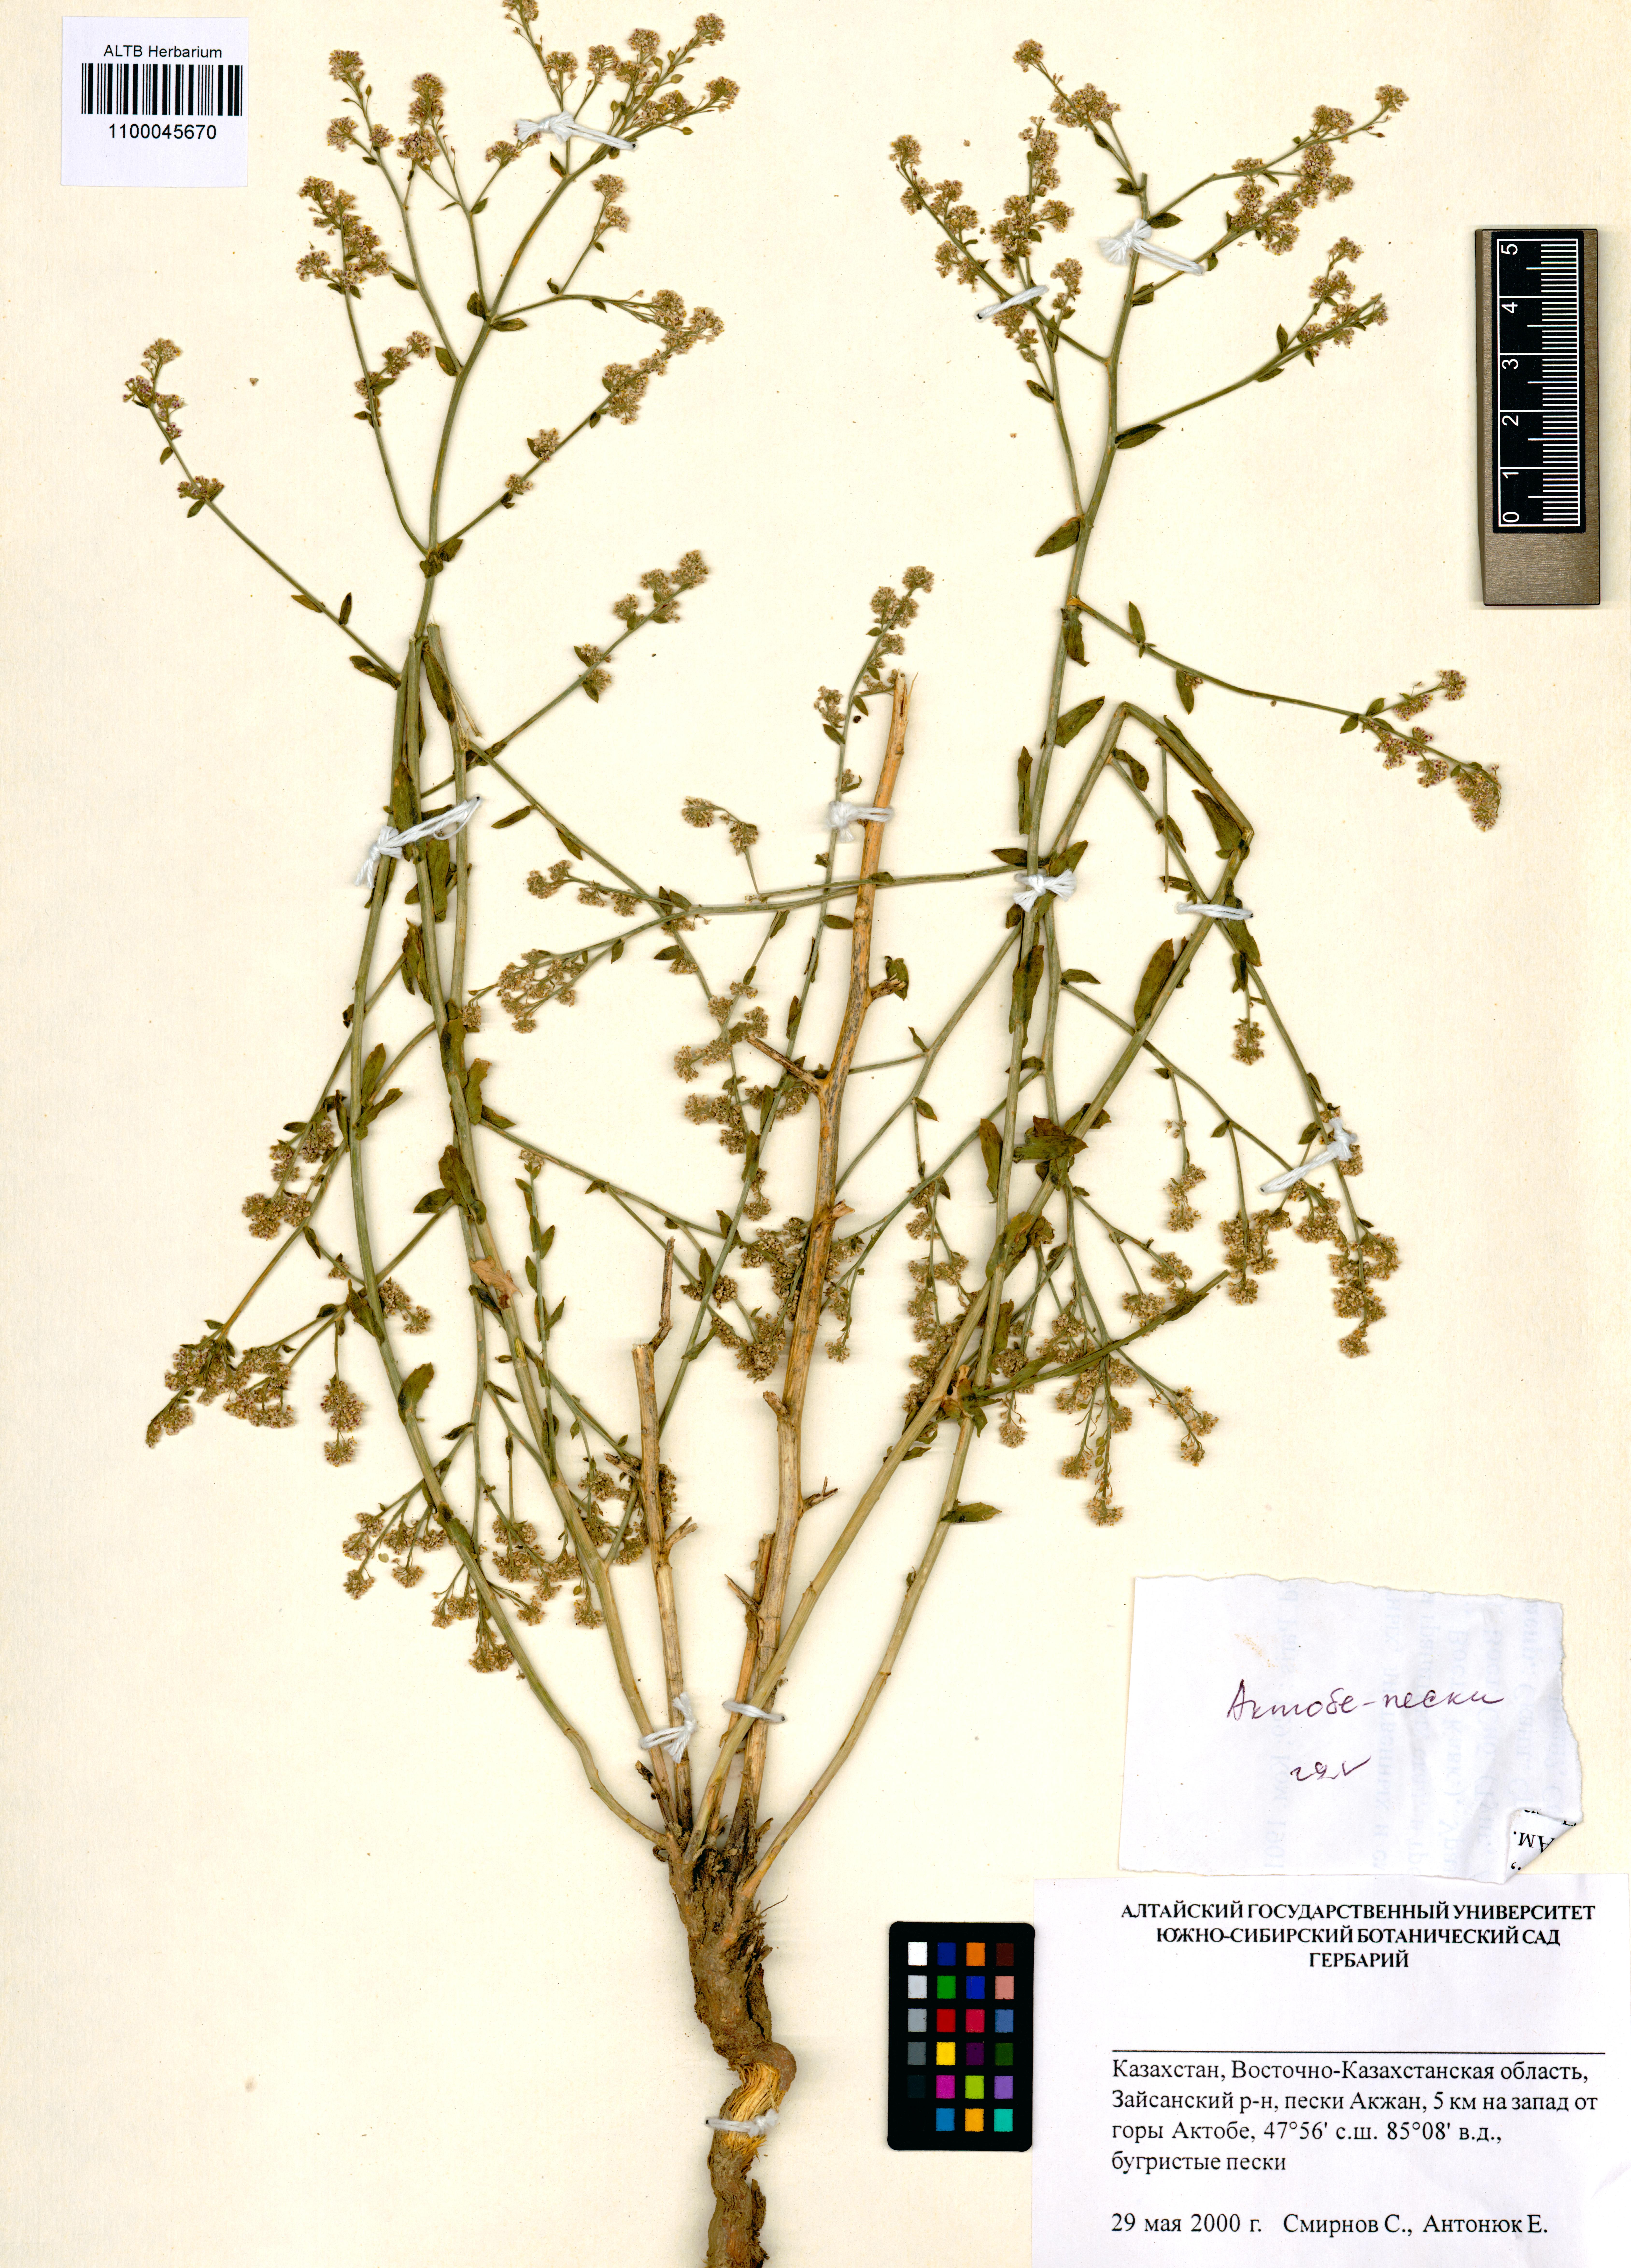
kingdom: Plantae
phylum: Tracheophyta
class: Magnoliopsida
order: Brassicales
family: Brassicaceae
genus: Lepidium
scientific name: Lepidium cordatum
